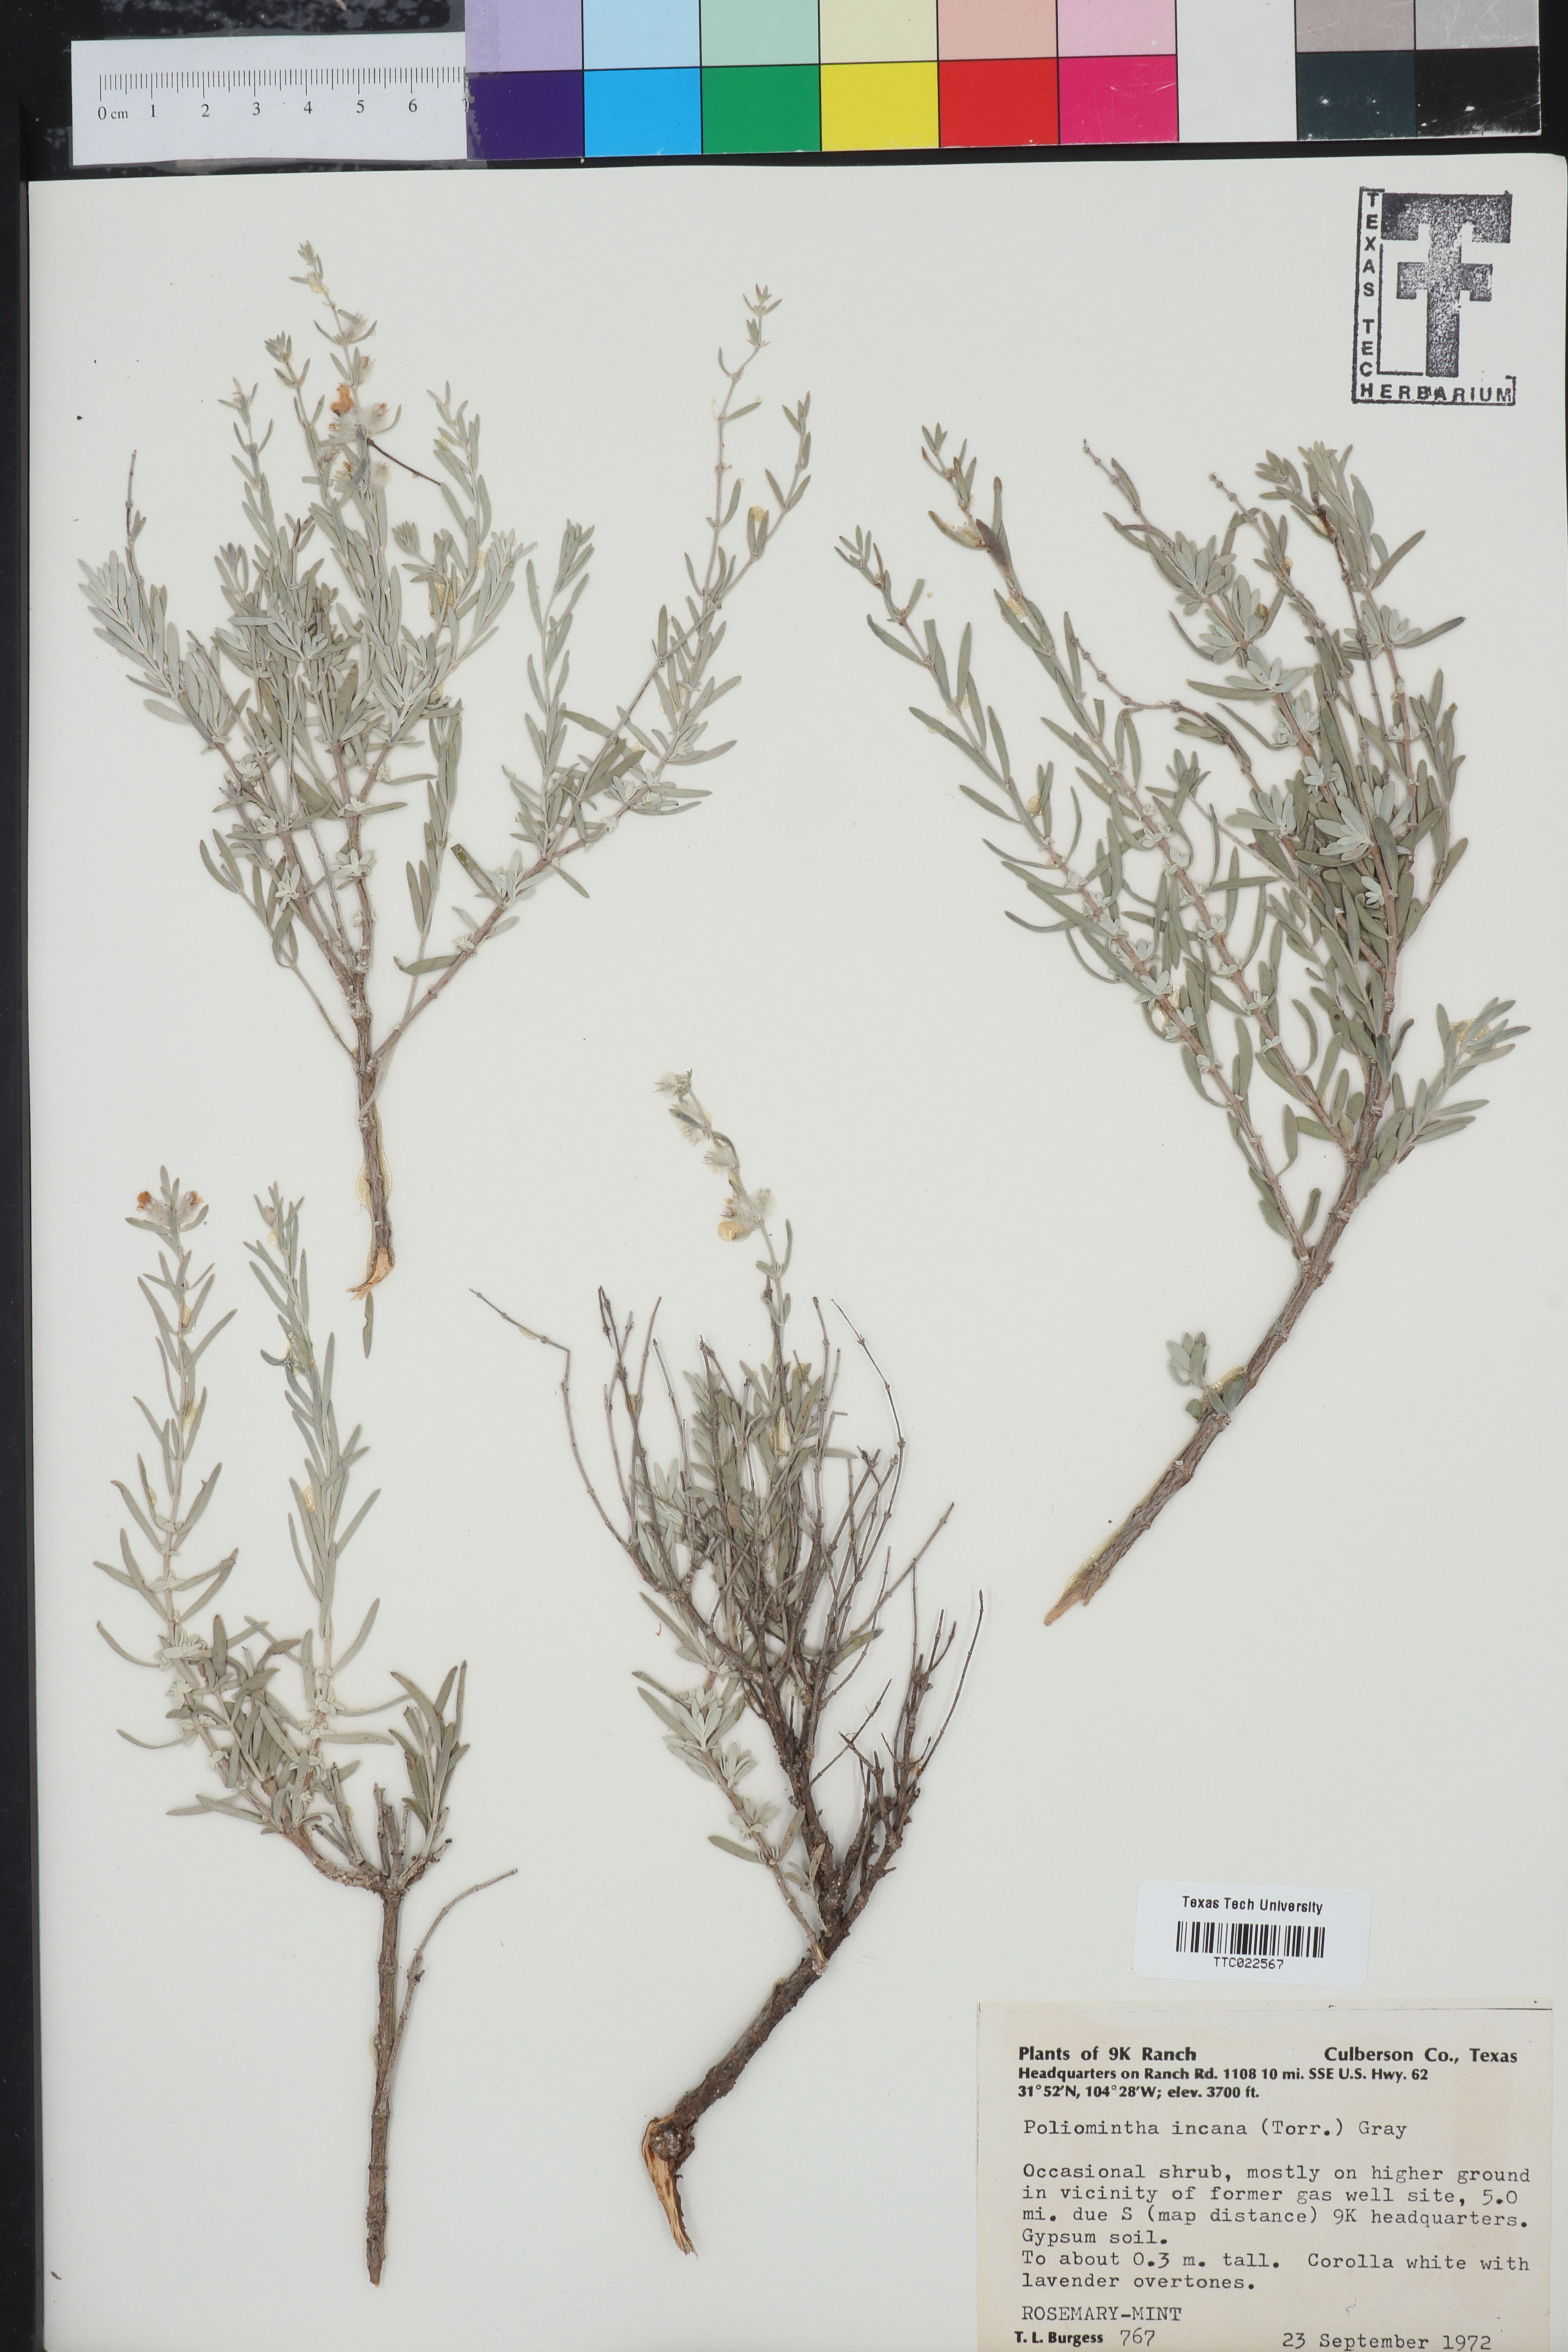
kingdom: Plantae
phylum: Tracheophyta
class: Magnoliopsida
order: Lamiales
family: Lamiaceae
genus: Poliomintha
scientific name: Poliomintha incana
